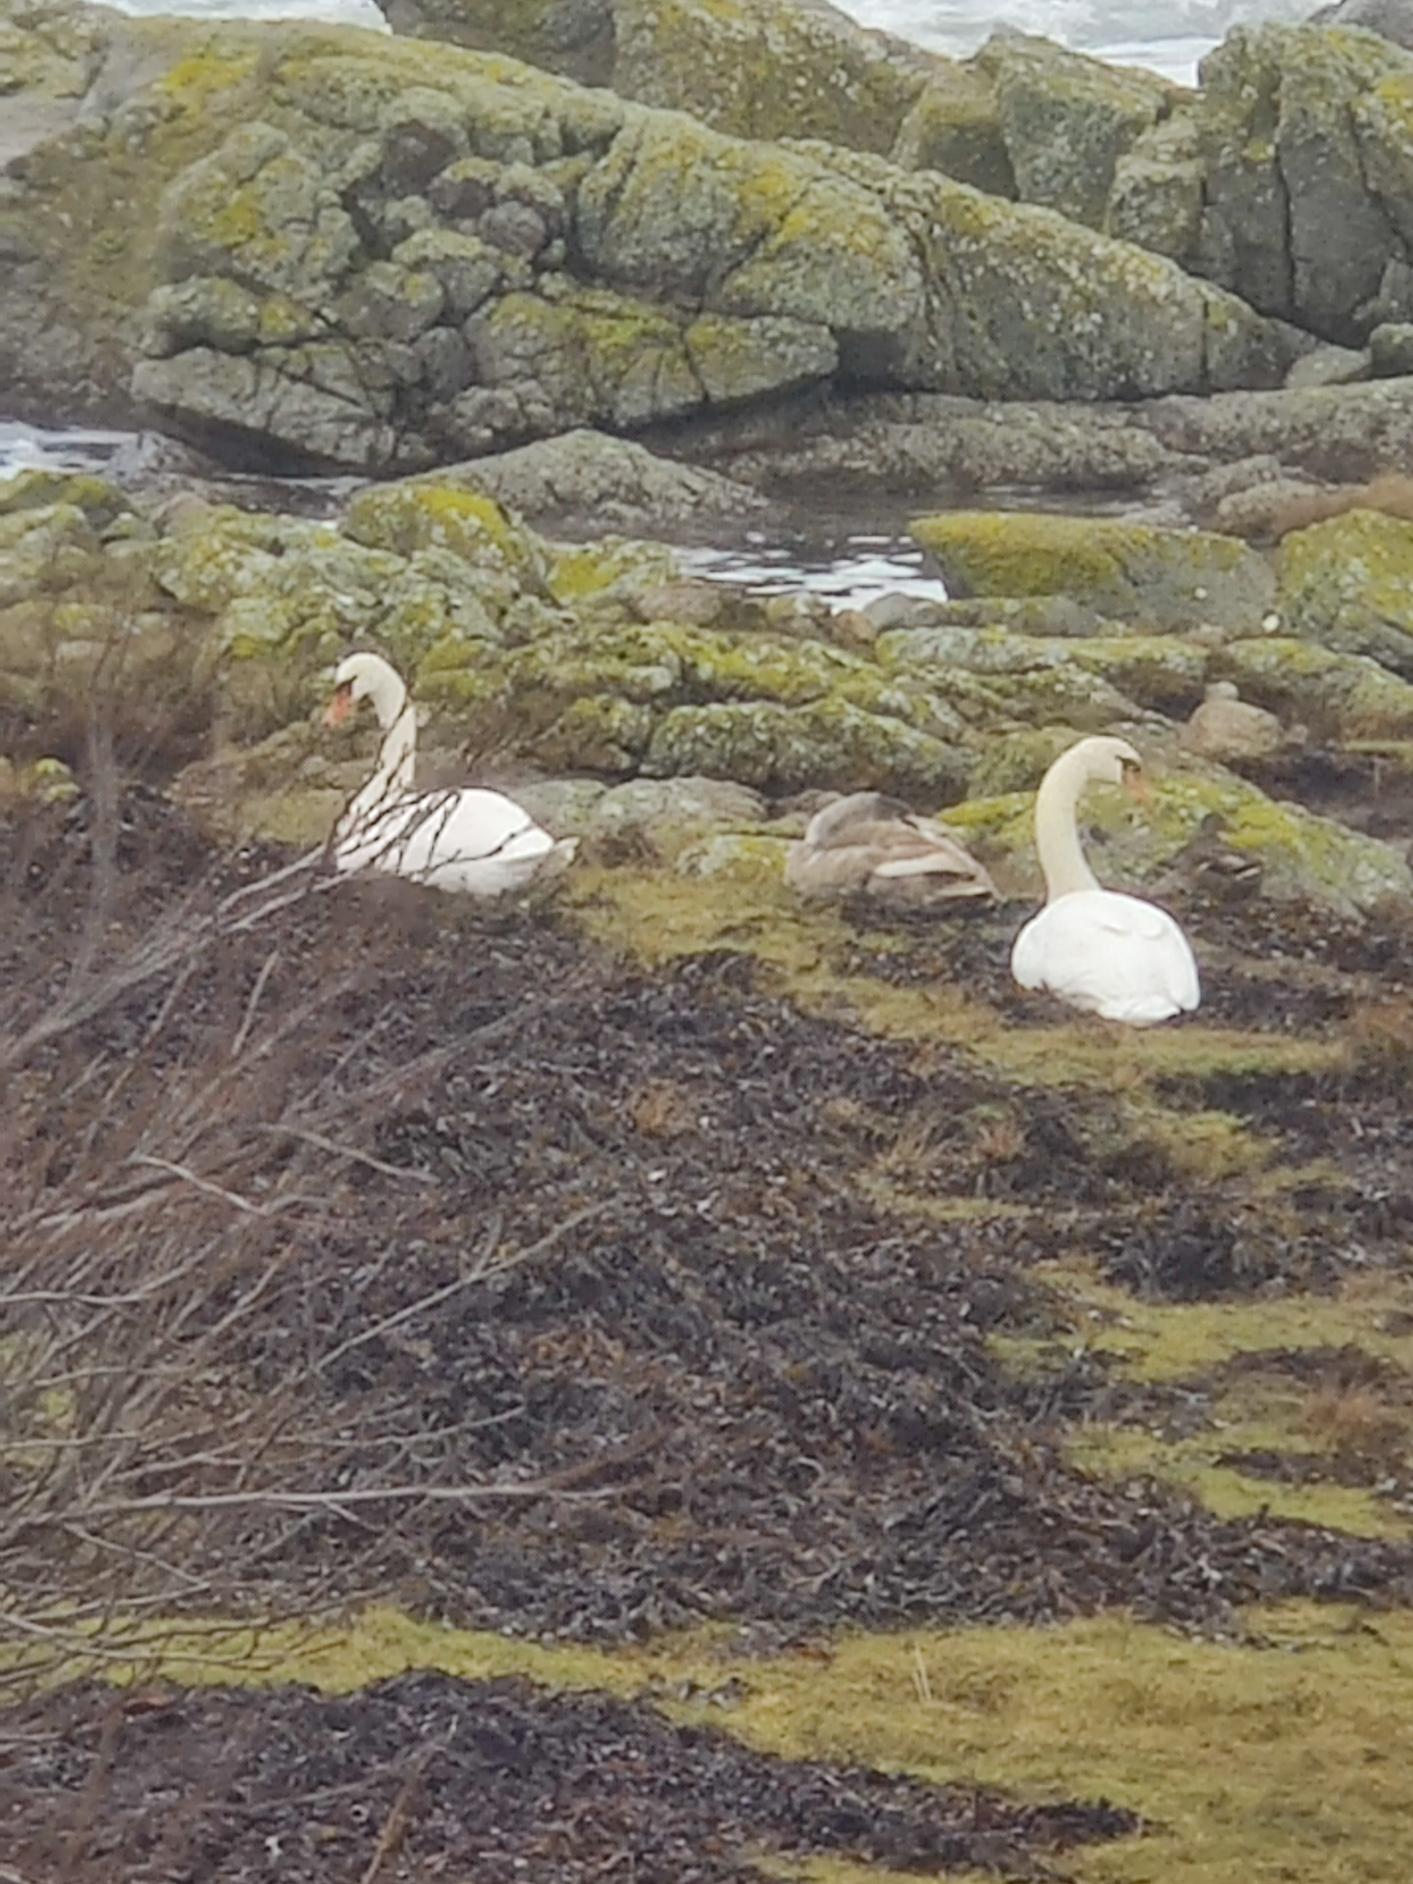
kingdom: Animalia
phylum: Chordata
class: Aves
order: Anseriformes
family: Anatidae
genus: Cygnus
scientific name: Cygnus olor
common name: Knopsvane
